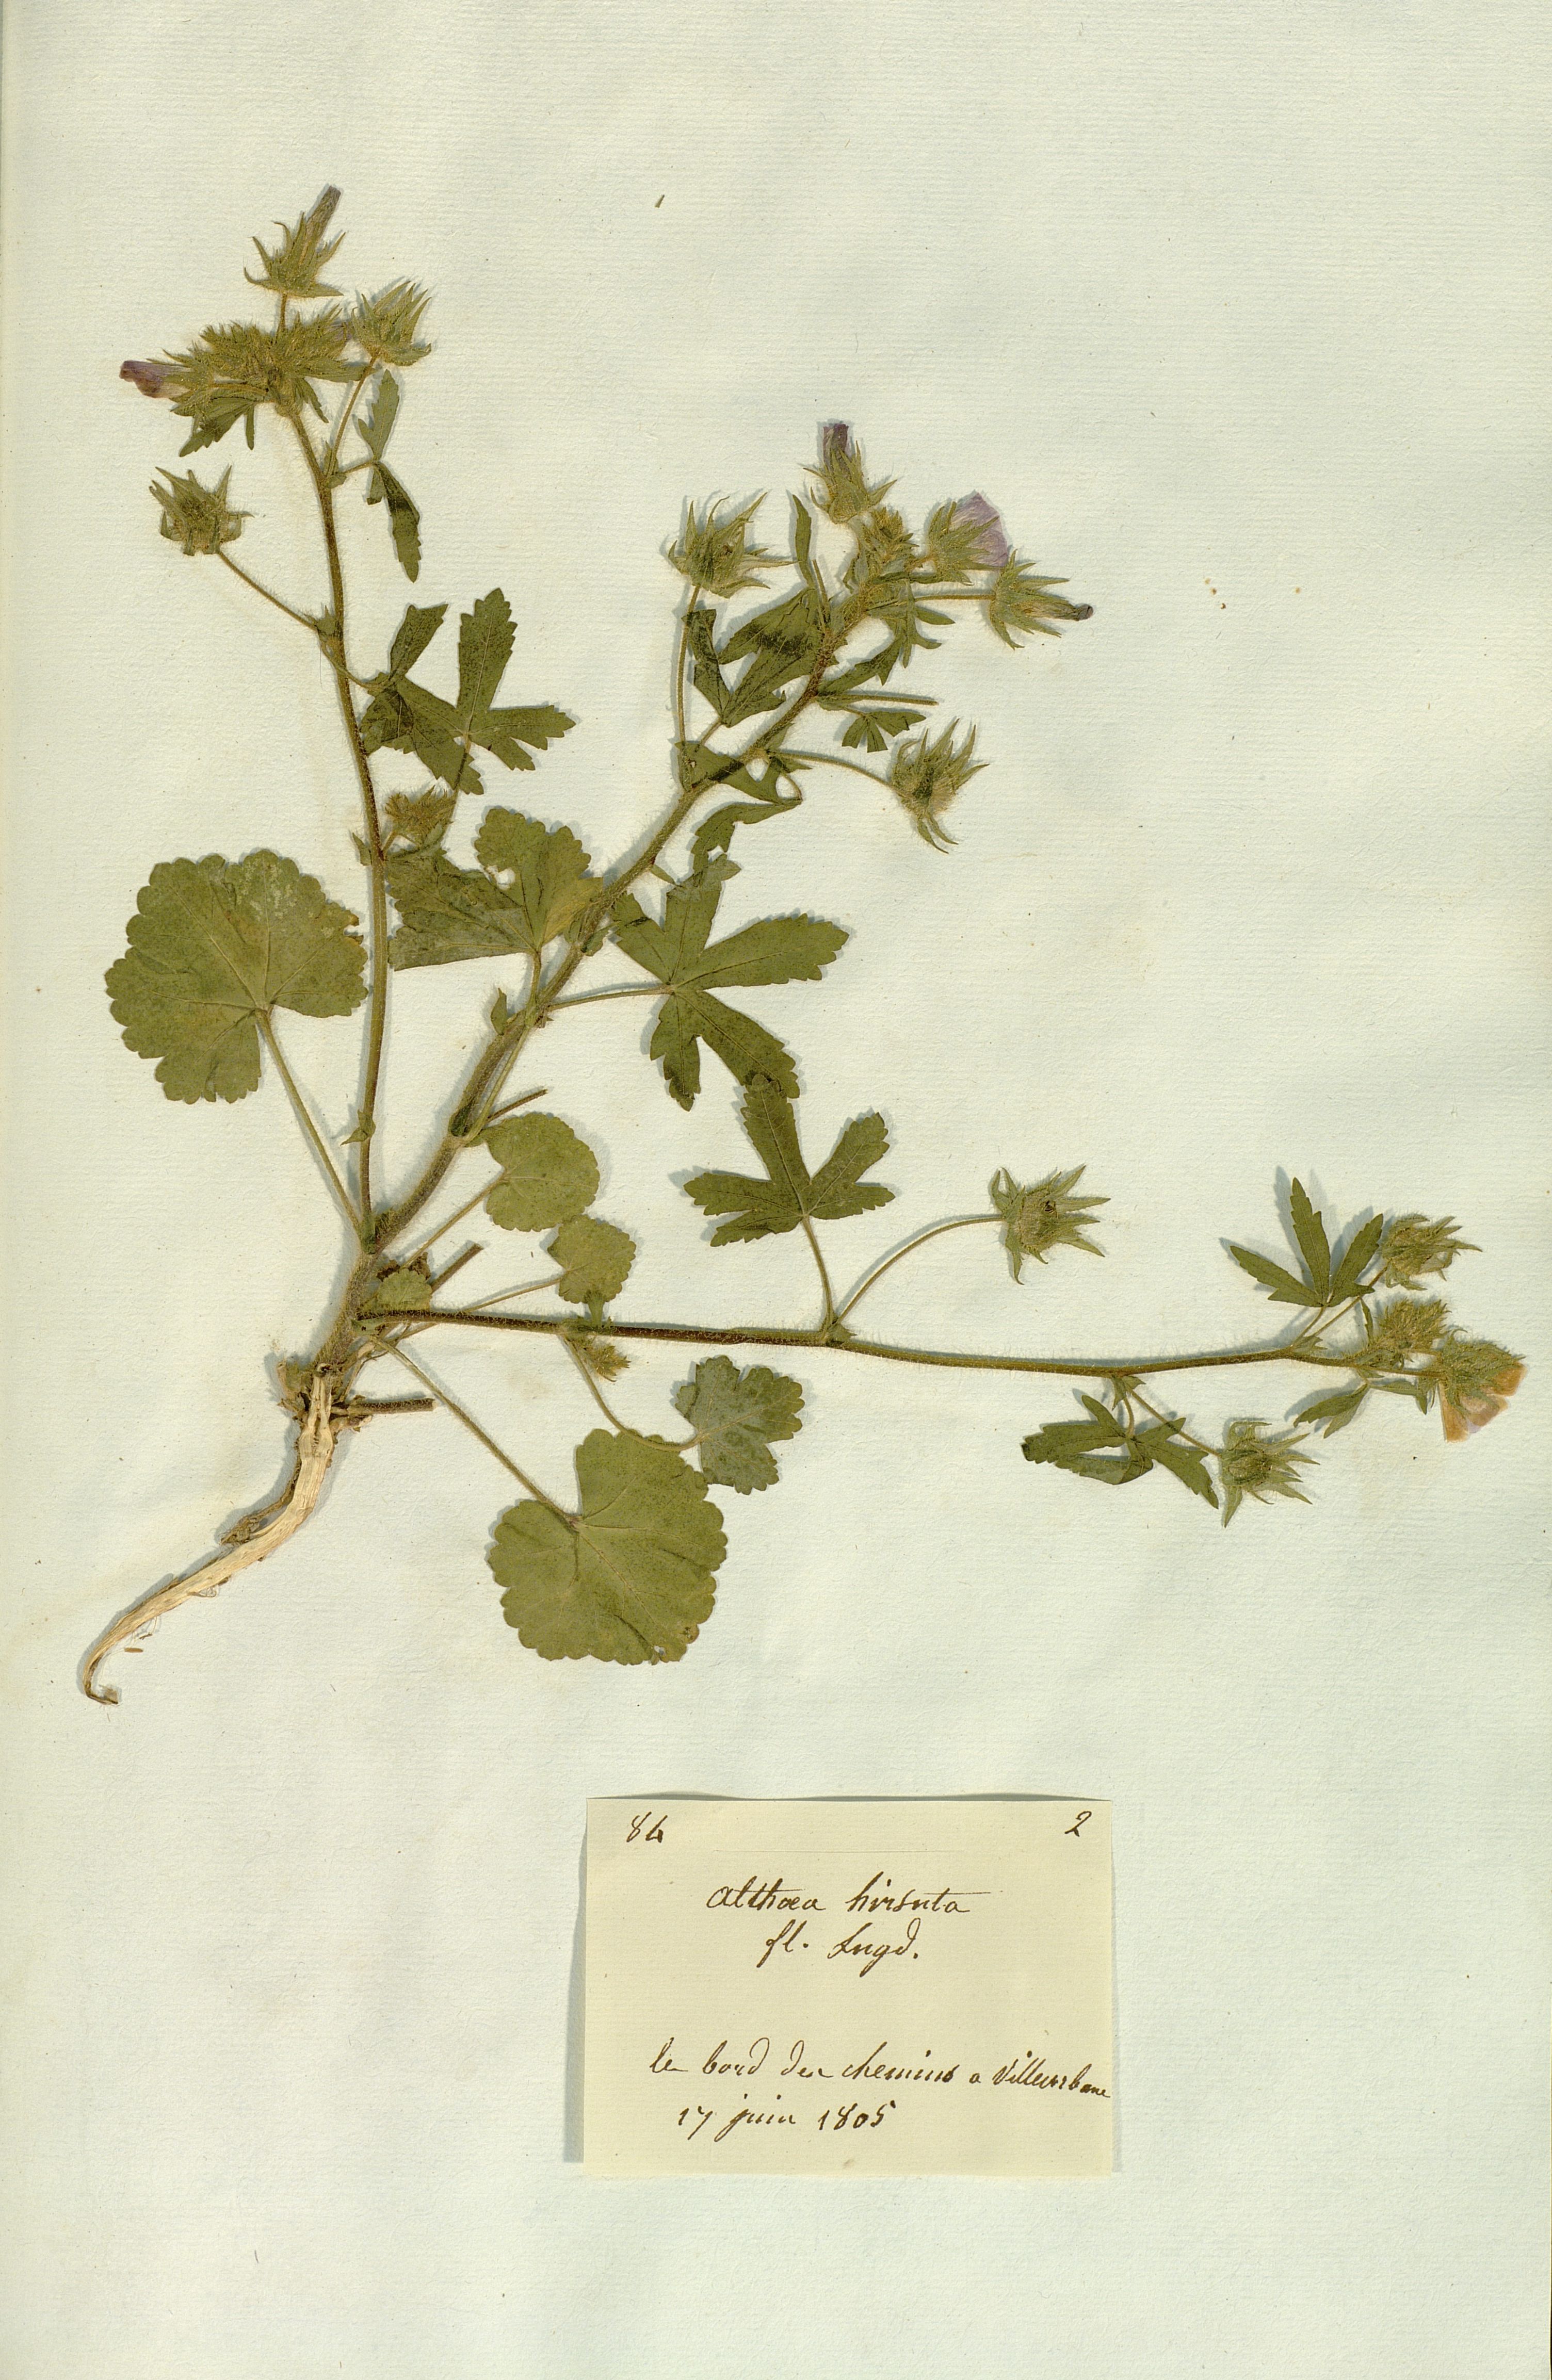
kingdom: Plantae
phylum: Tracheophyta
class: Magnoliopsida
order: Malvales
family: Malvaceae
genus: Althaea
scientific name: Althaea hirsuta
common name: Rough marsh-mallow
